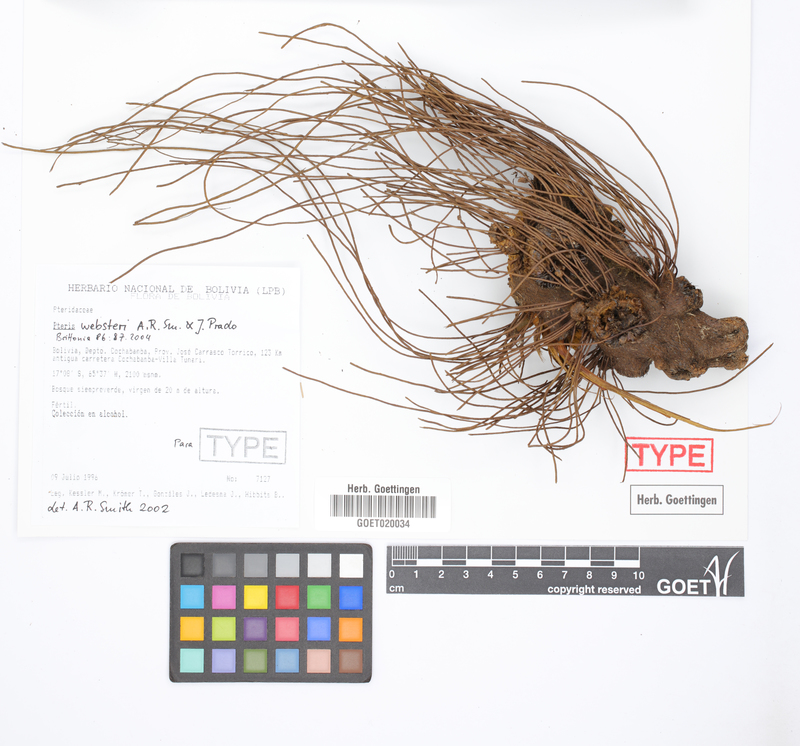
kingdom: Plantae
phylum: Tracheophyta
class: Polypodiopsida
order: Polypodiales
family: Pteridaceae
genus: Pteris
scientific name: Pteris websteri
